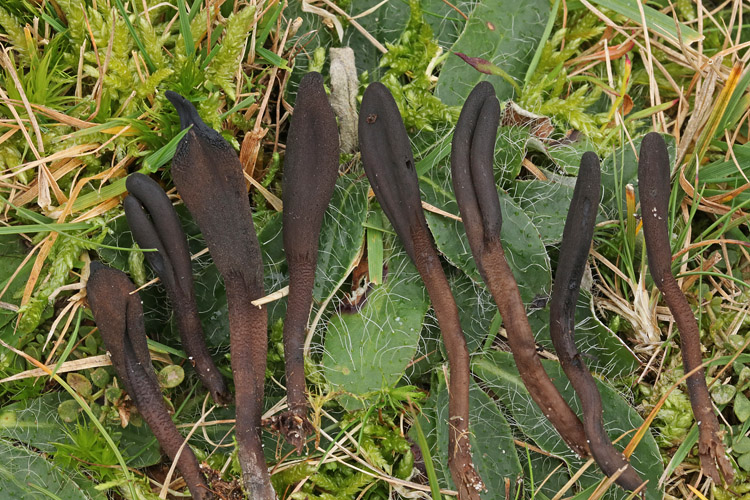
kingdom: Fungi
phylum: Ascomycota
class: Geoglossomycetes
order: Geoglossales
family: Geoglossaceae
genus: Hemileucoglossum
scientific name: Hemileucoglossum elongatum
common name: småsporet jordtunge
